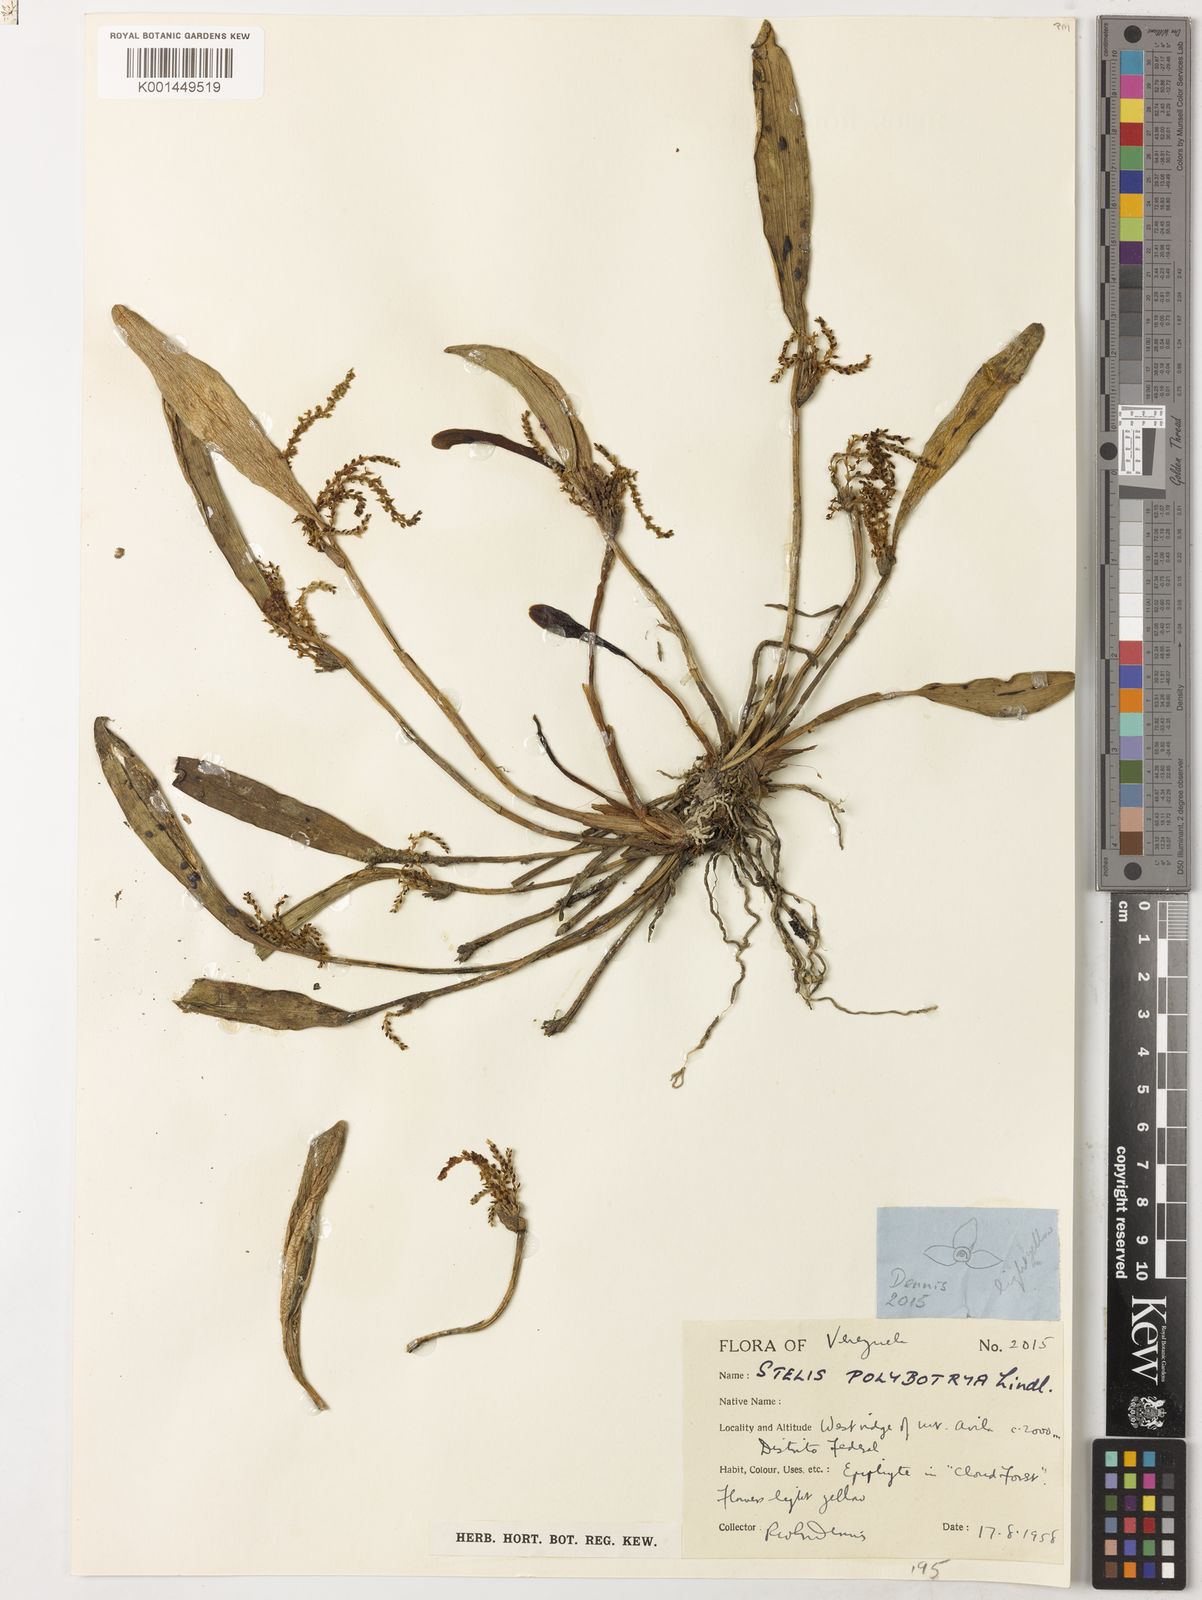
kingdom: Plantae
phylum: Tracheophyta
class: Liliopsida
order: Asparagales
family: Orchidaceae
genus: Stelis
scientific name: Stelis polybotrya
